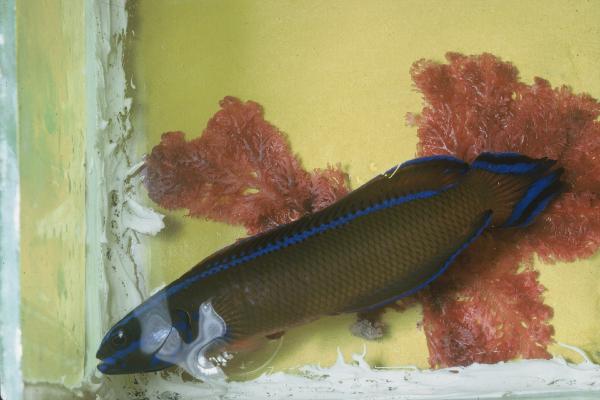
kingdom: Animalia
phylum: Chordata
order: Perciformes
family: Pseudochromidae
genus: Pseudochromis
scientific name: Pseudochromis dutoiti
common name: Dutoiti
